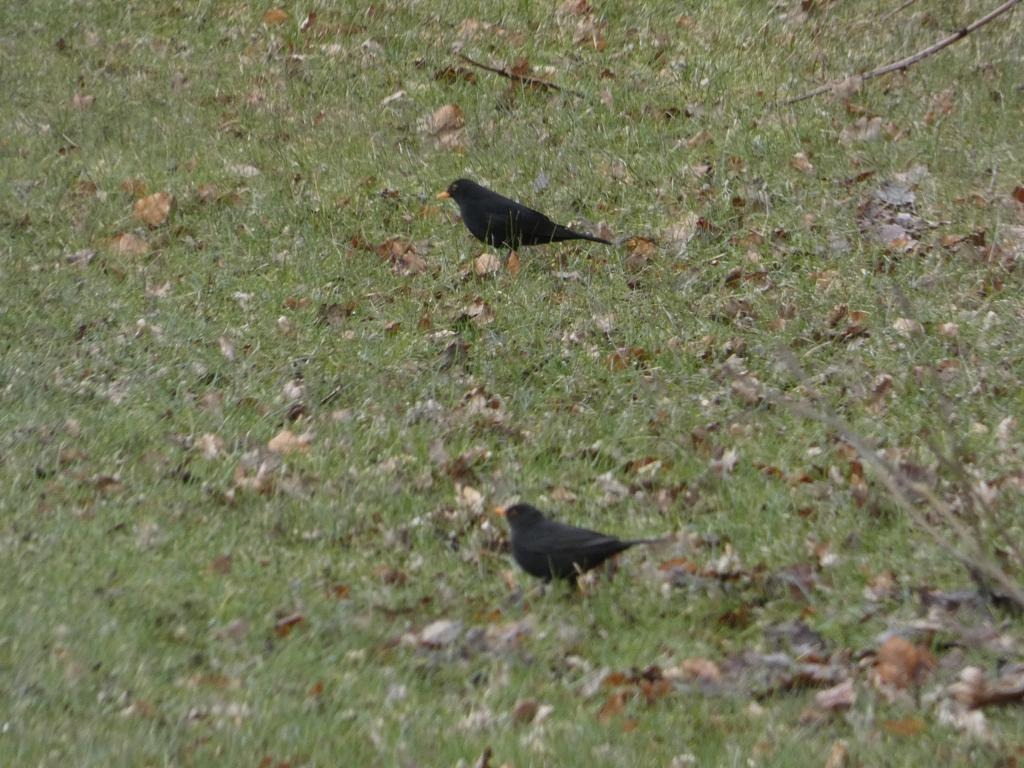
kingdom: Animalia
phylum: Chordata
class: Aves
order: Passeriformes
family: Turdidae
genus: Turdus
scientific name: Turdus merula
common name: Solsort
